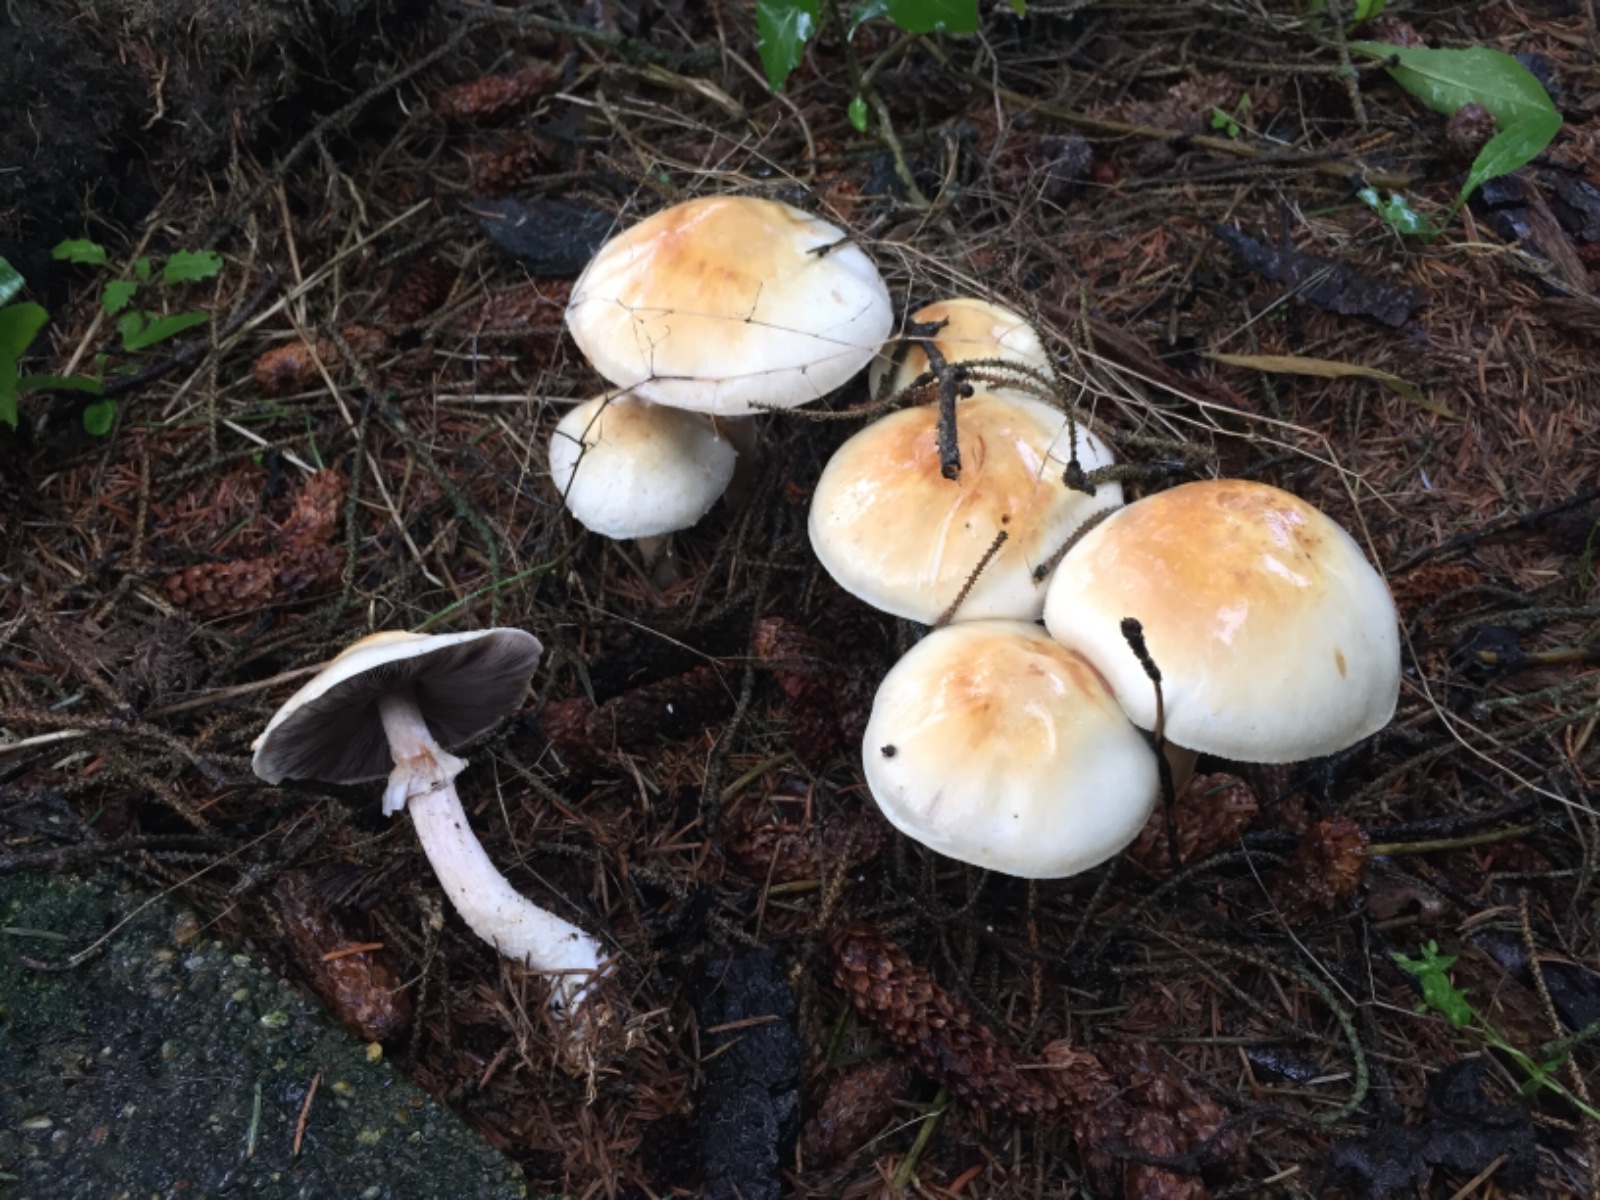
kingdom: Fungi
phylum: Basidiomycota
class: Agaricomycetes
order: Agaricales
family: Agaricaceae
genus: Agaricus
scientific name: Agaricus
